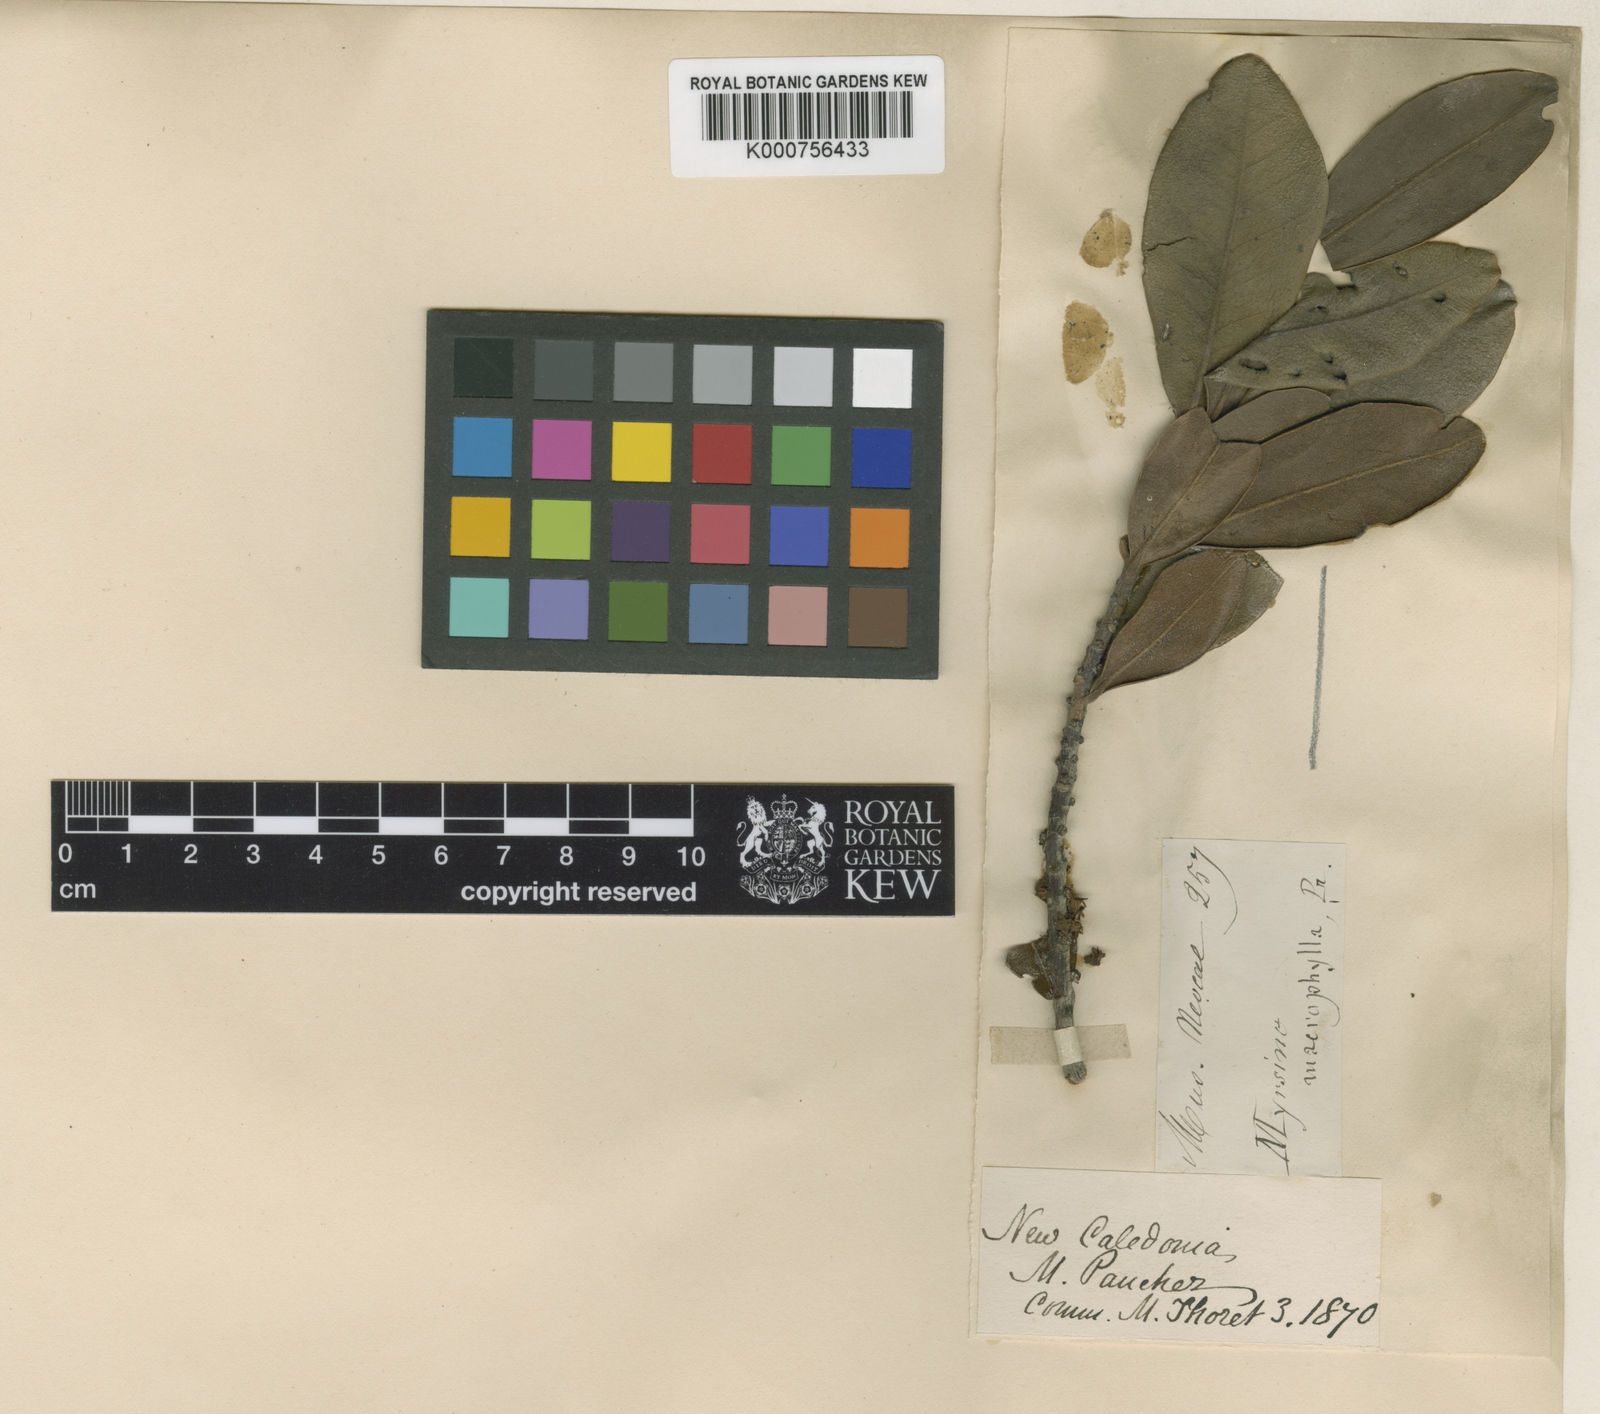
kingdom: Plantae
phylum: Tracheophyta
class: Magnoliopsida
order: Ericales
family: Primulaceae
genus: Myrsine
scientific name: Myrsine
